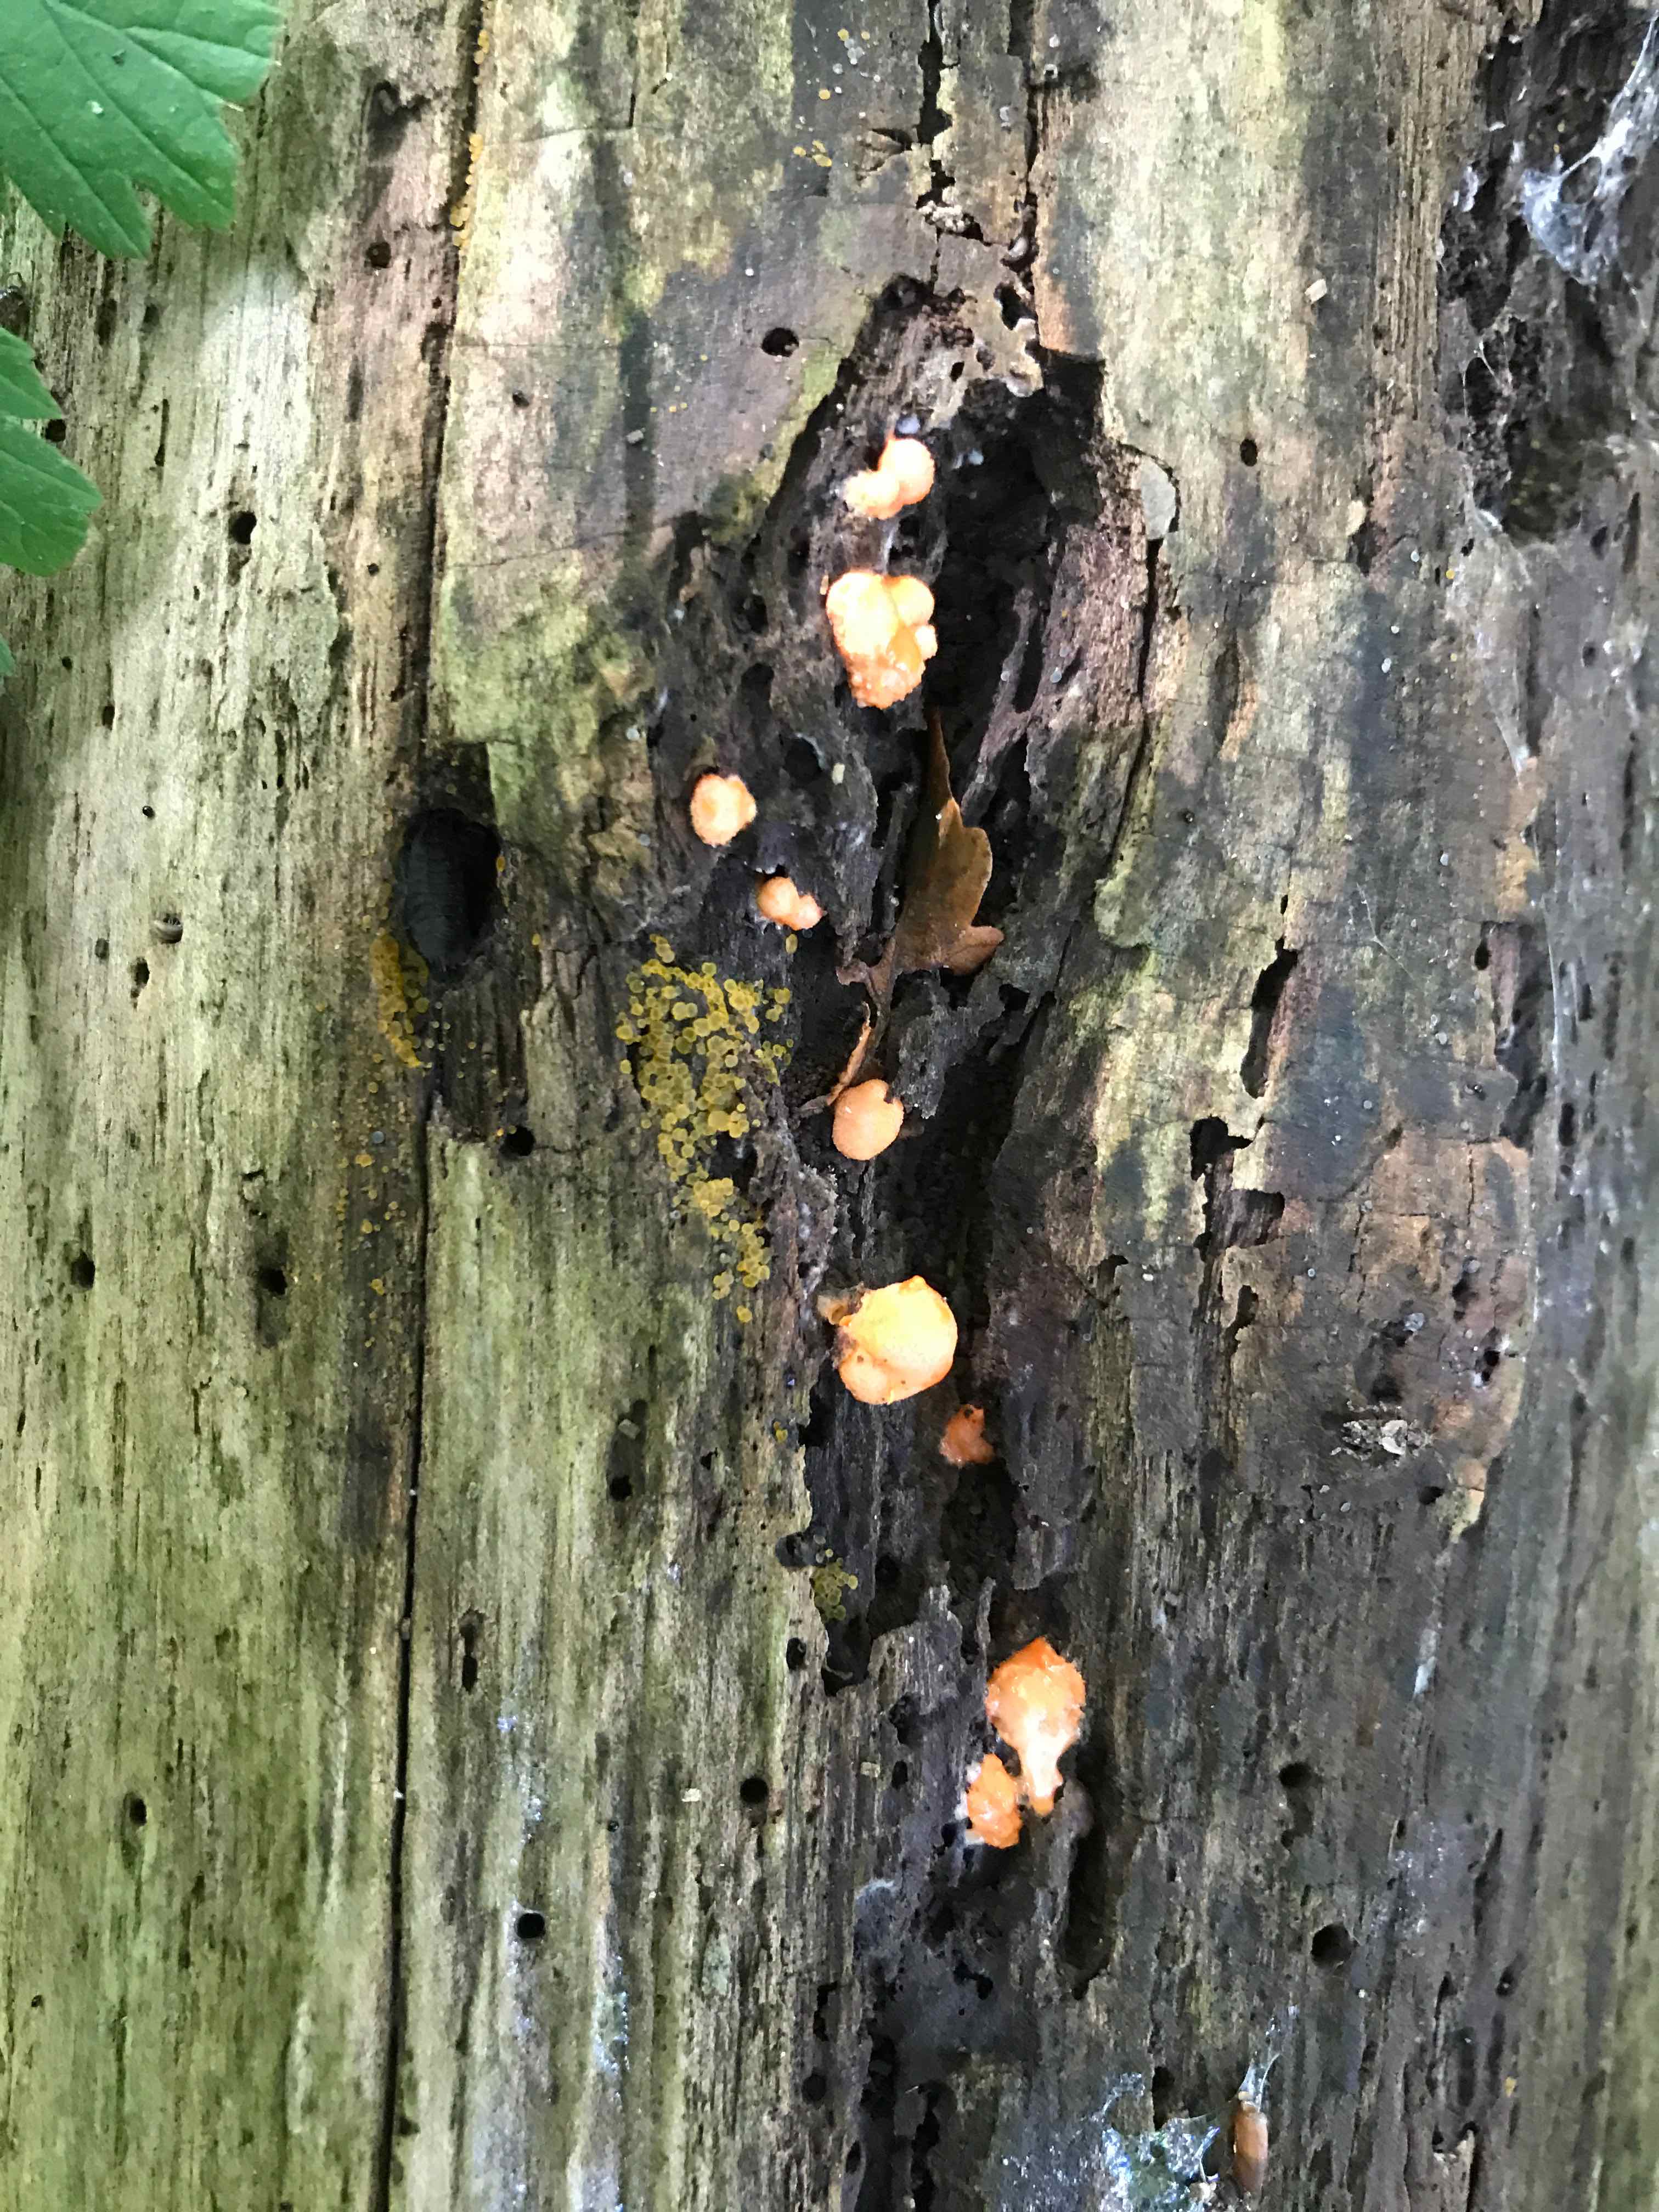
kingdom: Protozoa
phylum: Mycetozoa
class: Myxomycetes
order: Cribrariales
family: Tubiferaceae
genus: Lycogala
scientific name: Lycogala epidendrum
